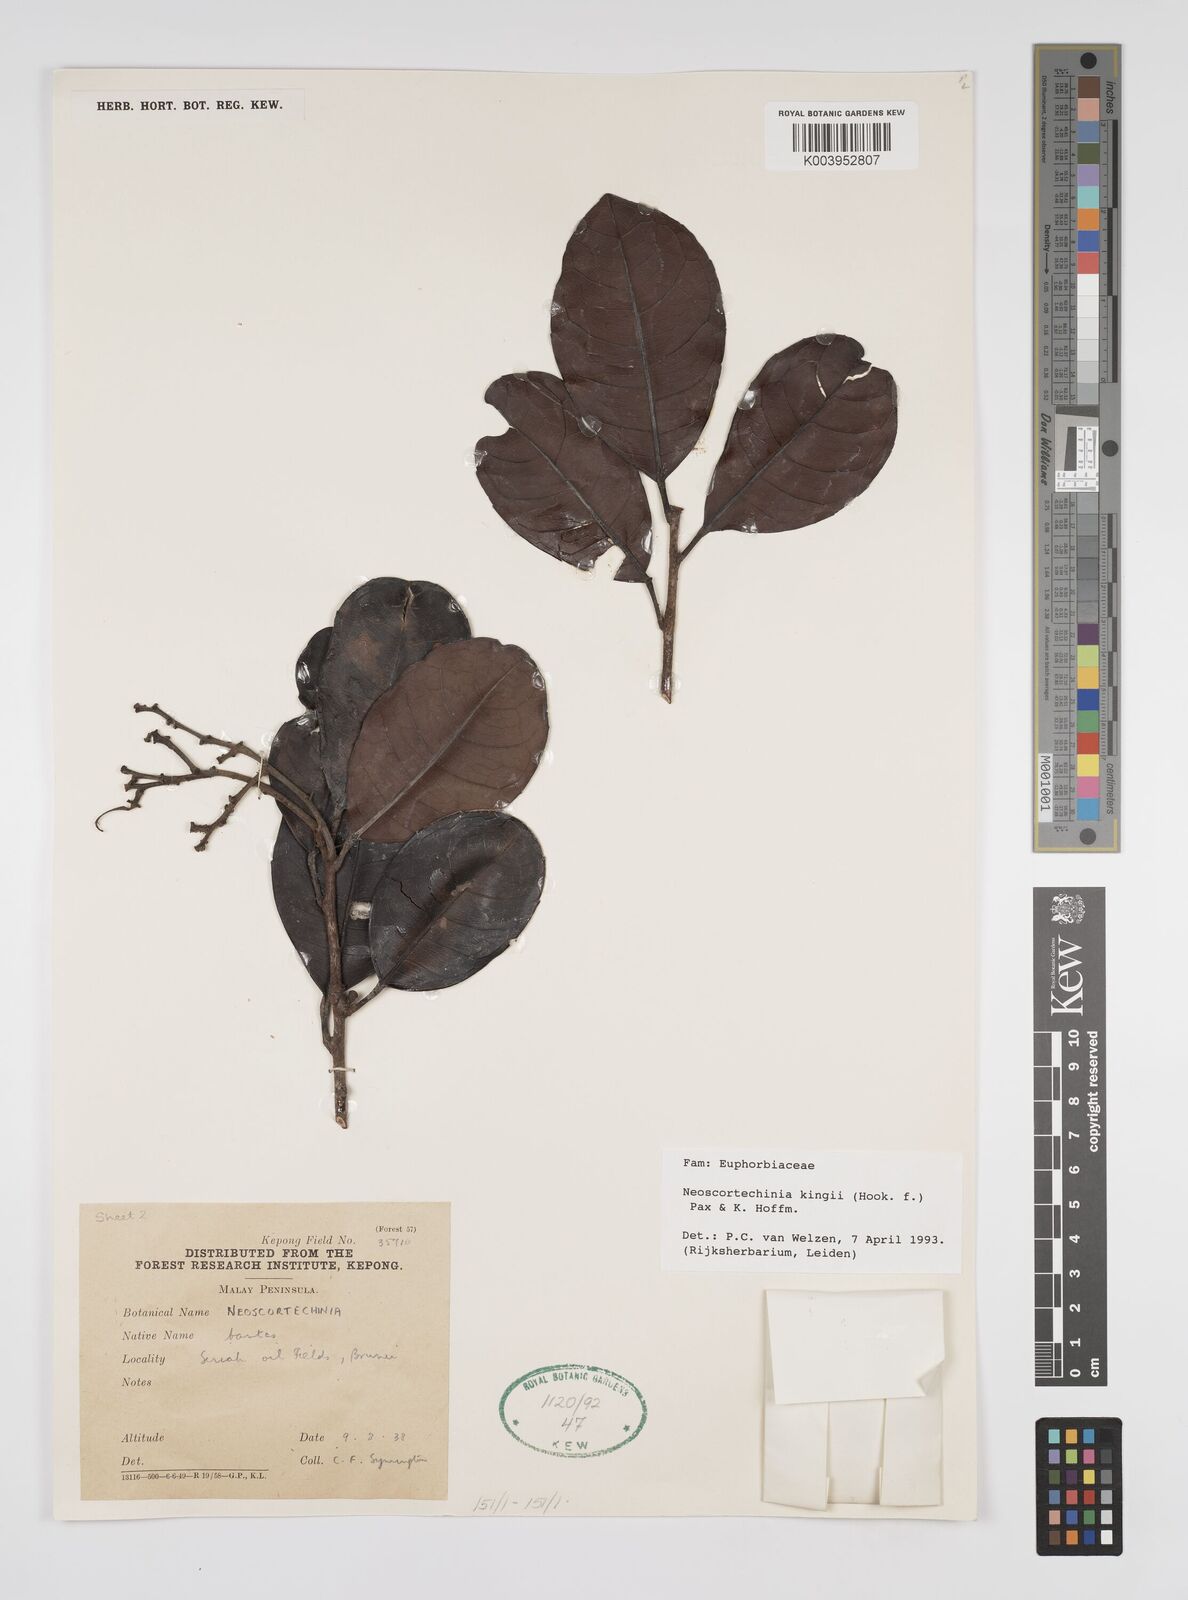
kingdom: Plantae
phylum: Tracheophyta
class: Magnoliopsida
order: Malpighiales
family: Euphorbiaceae
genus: Neoscortechinia
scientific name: Neoscortechinia kingii
